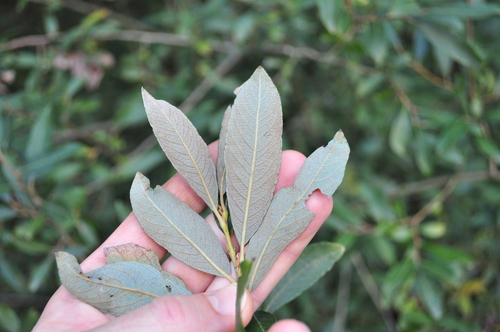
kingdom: Plantae
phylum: Tracheophyta
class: Magnoliopsida
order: Malpighiales
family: Salicaceae
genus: Salix
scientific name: Salix atrocinerea
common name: Rusty willow
